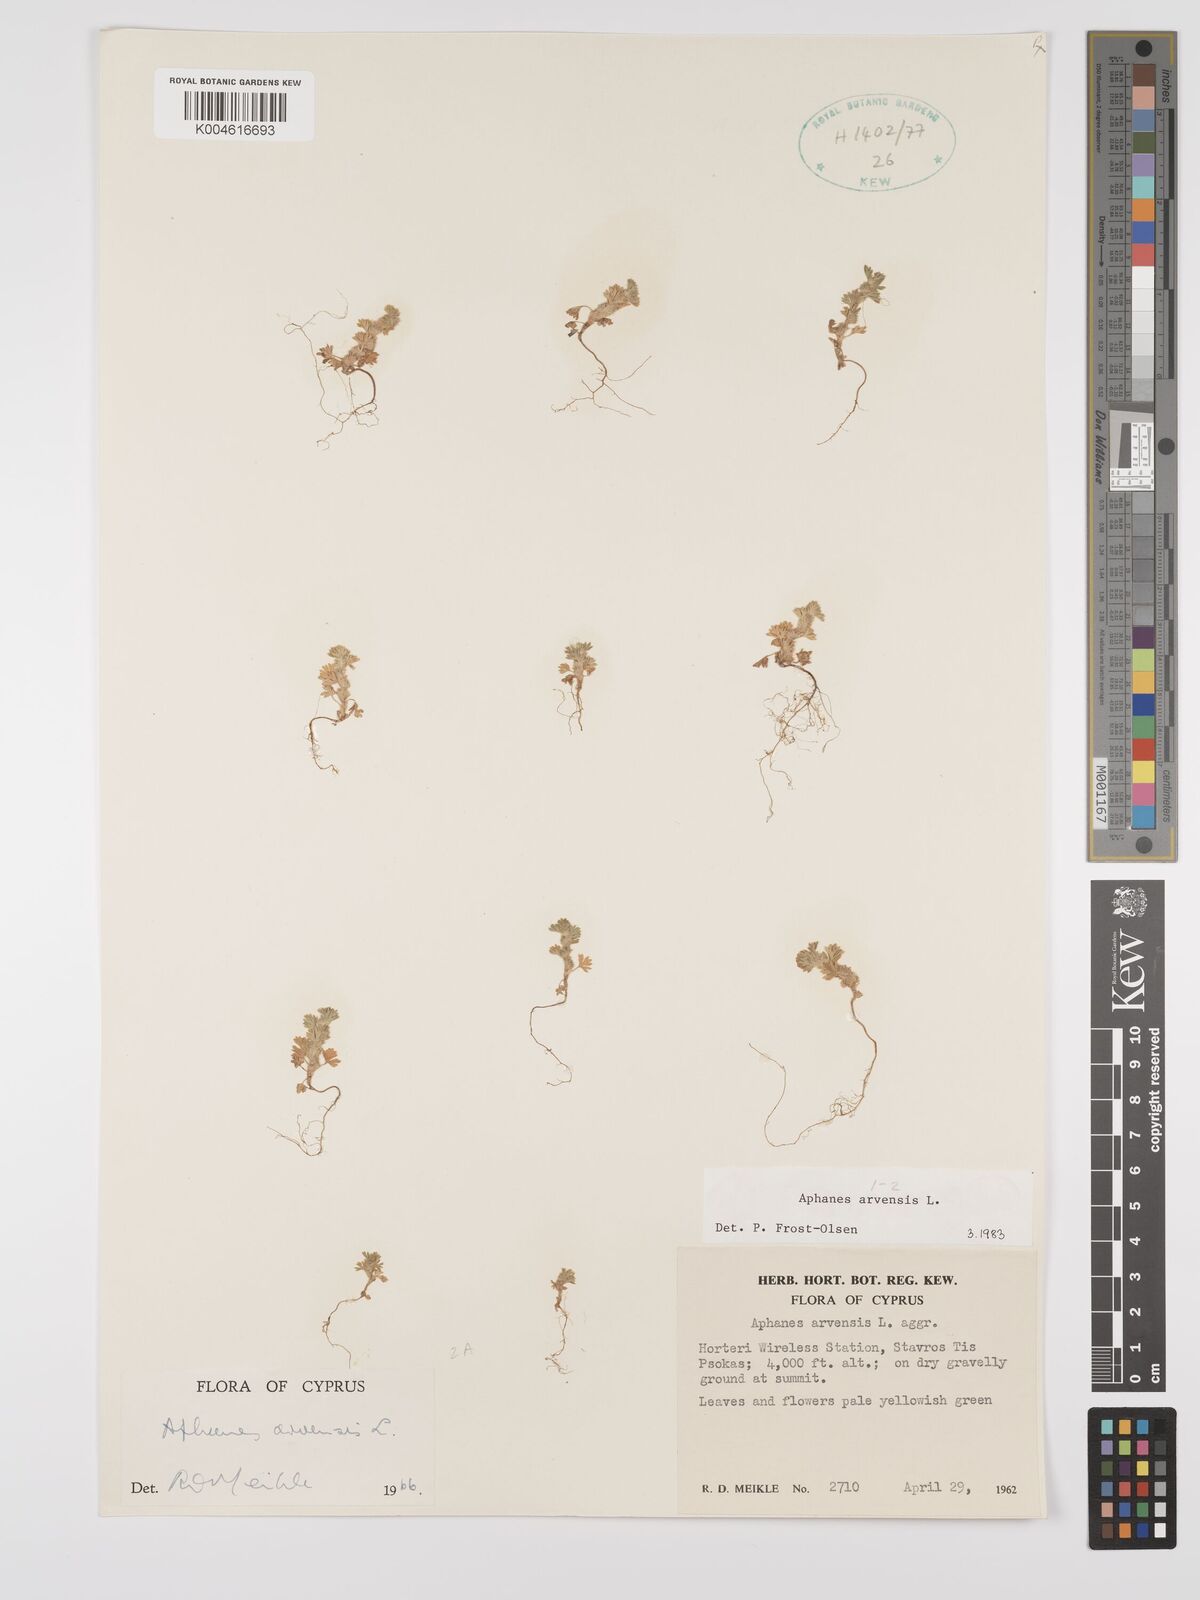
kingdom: Plantae
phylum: Tracheophyta
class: Magnoliopsida
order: Rosales
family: Rosaceae
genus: Aphanes
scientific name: Aphanes arvensis
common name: Parsley-piert
